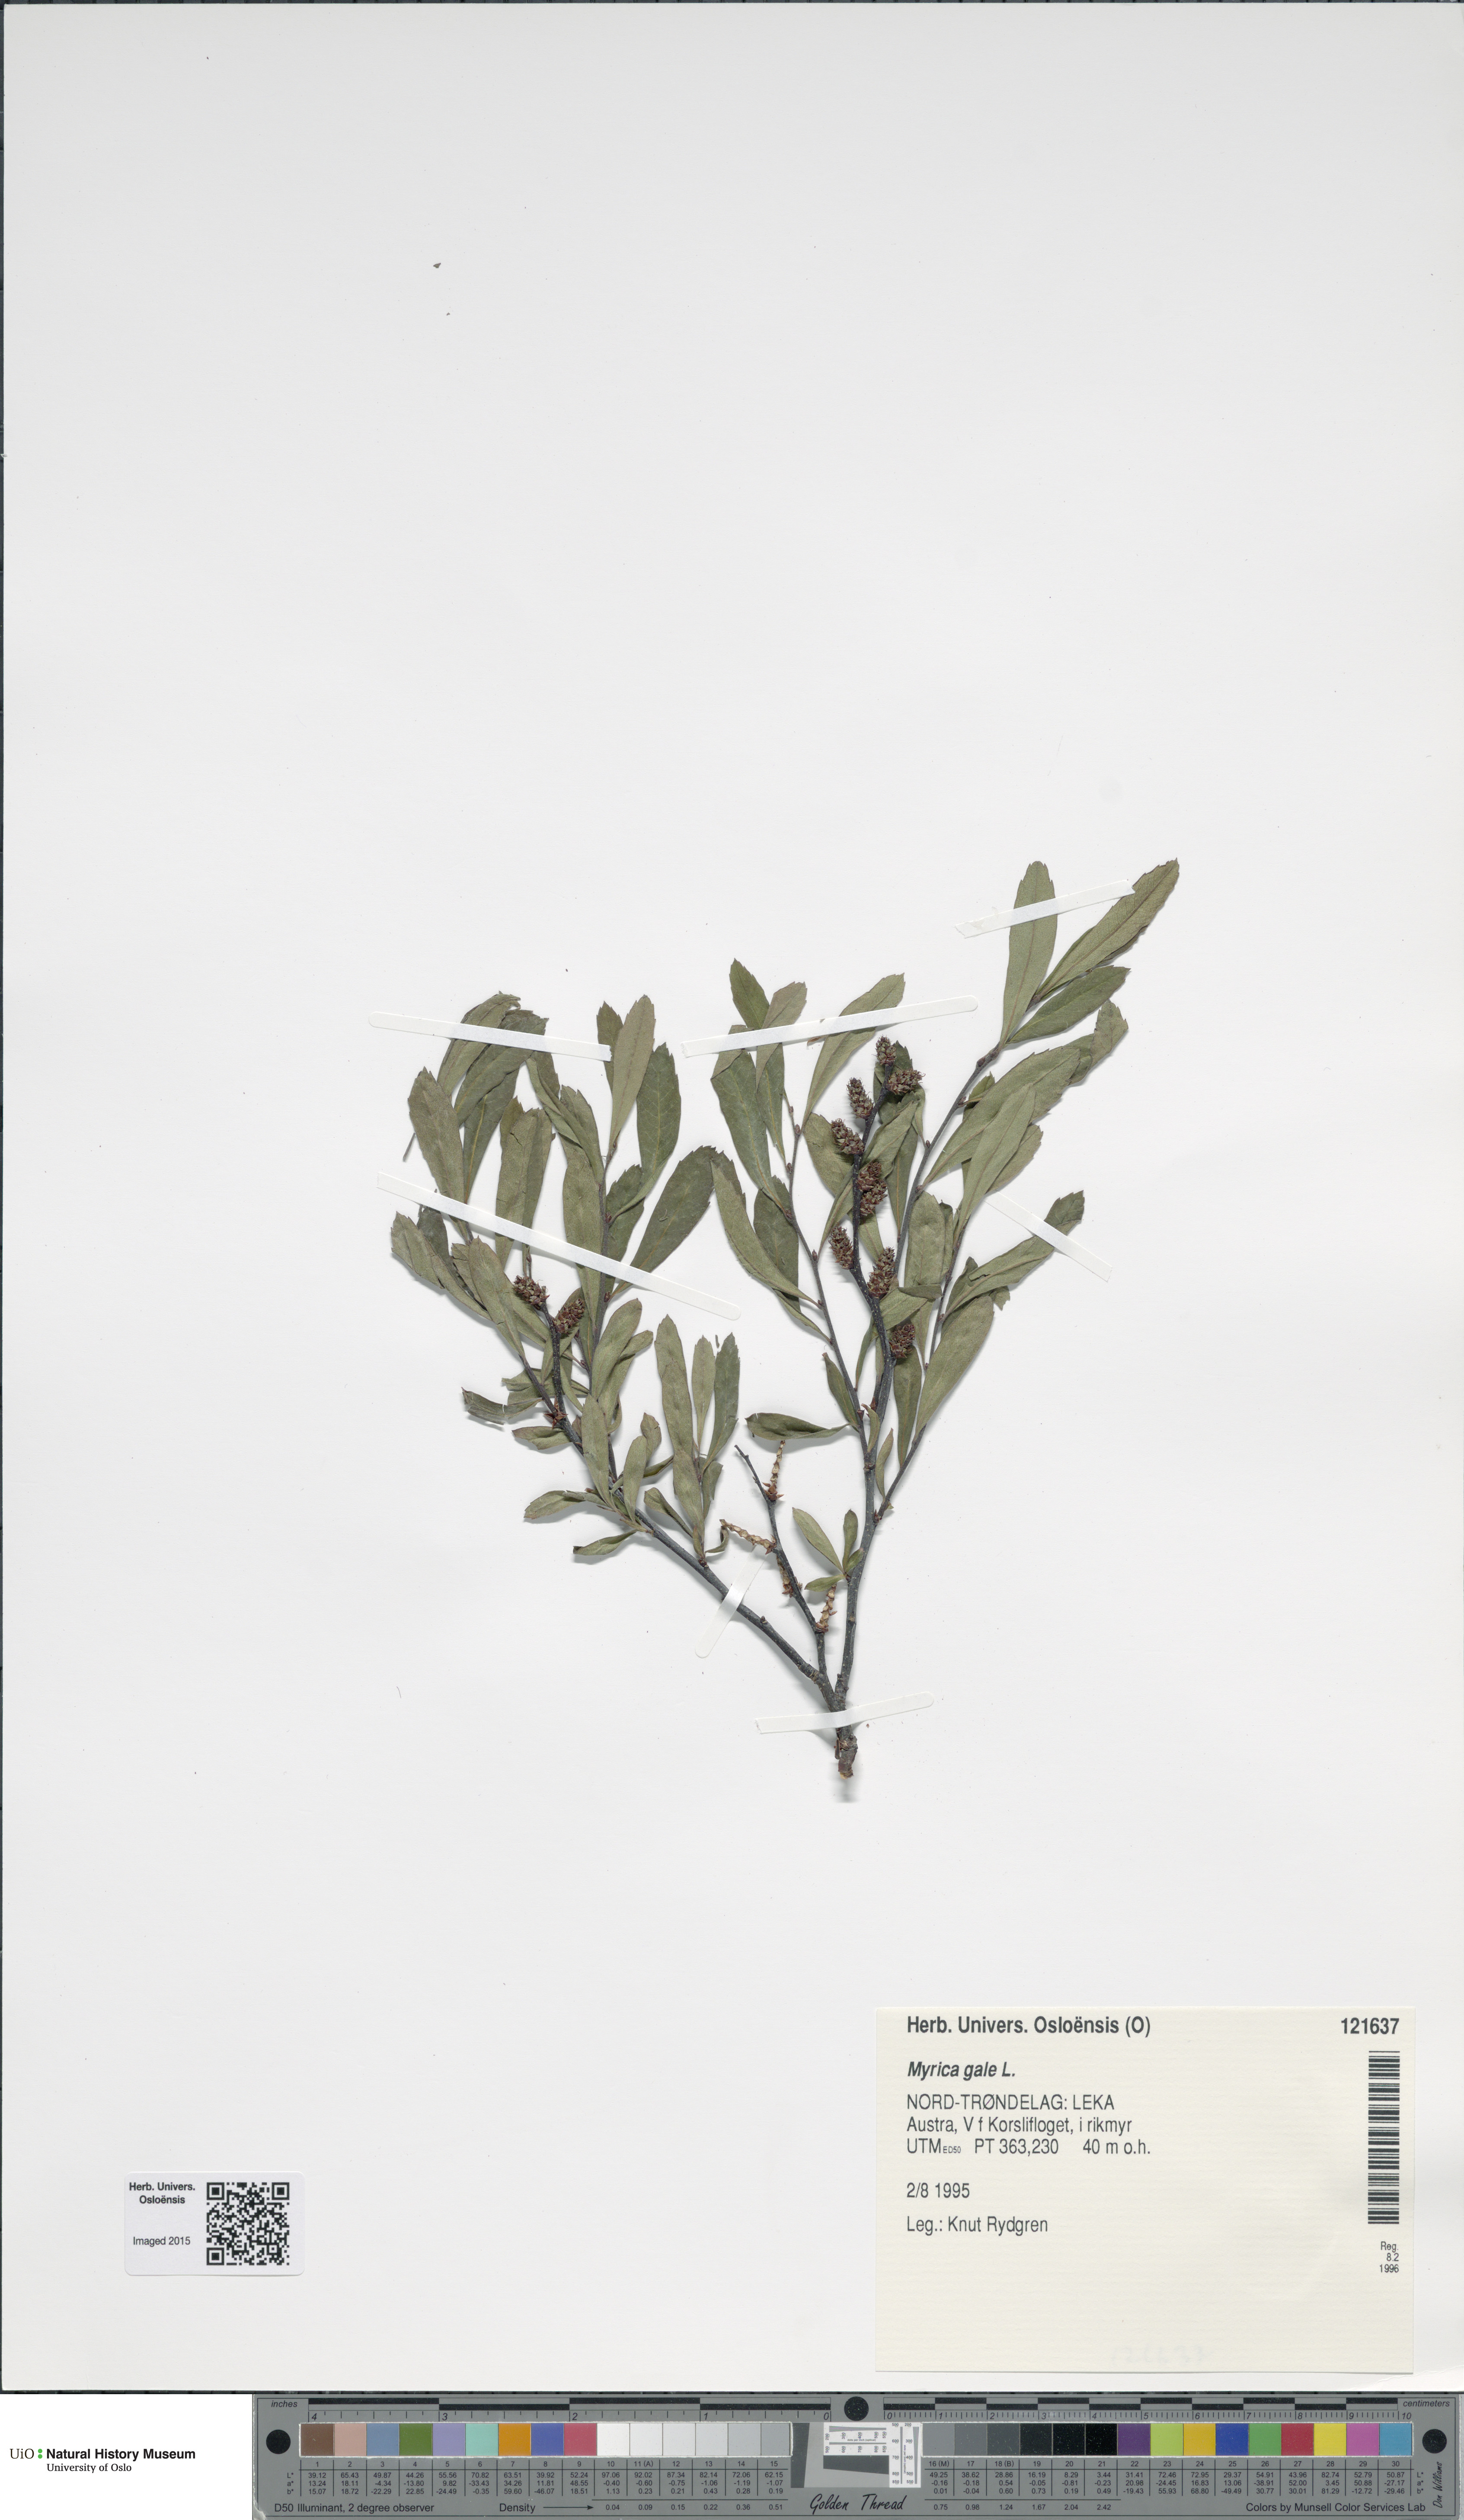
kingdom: Plantae
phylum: Tracheophyta
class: Magnoliopsida
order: Fagales
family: Myricaceae
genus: Myrica
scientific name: Myrica gale
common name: Sweet gale
